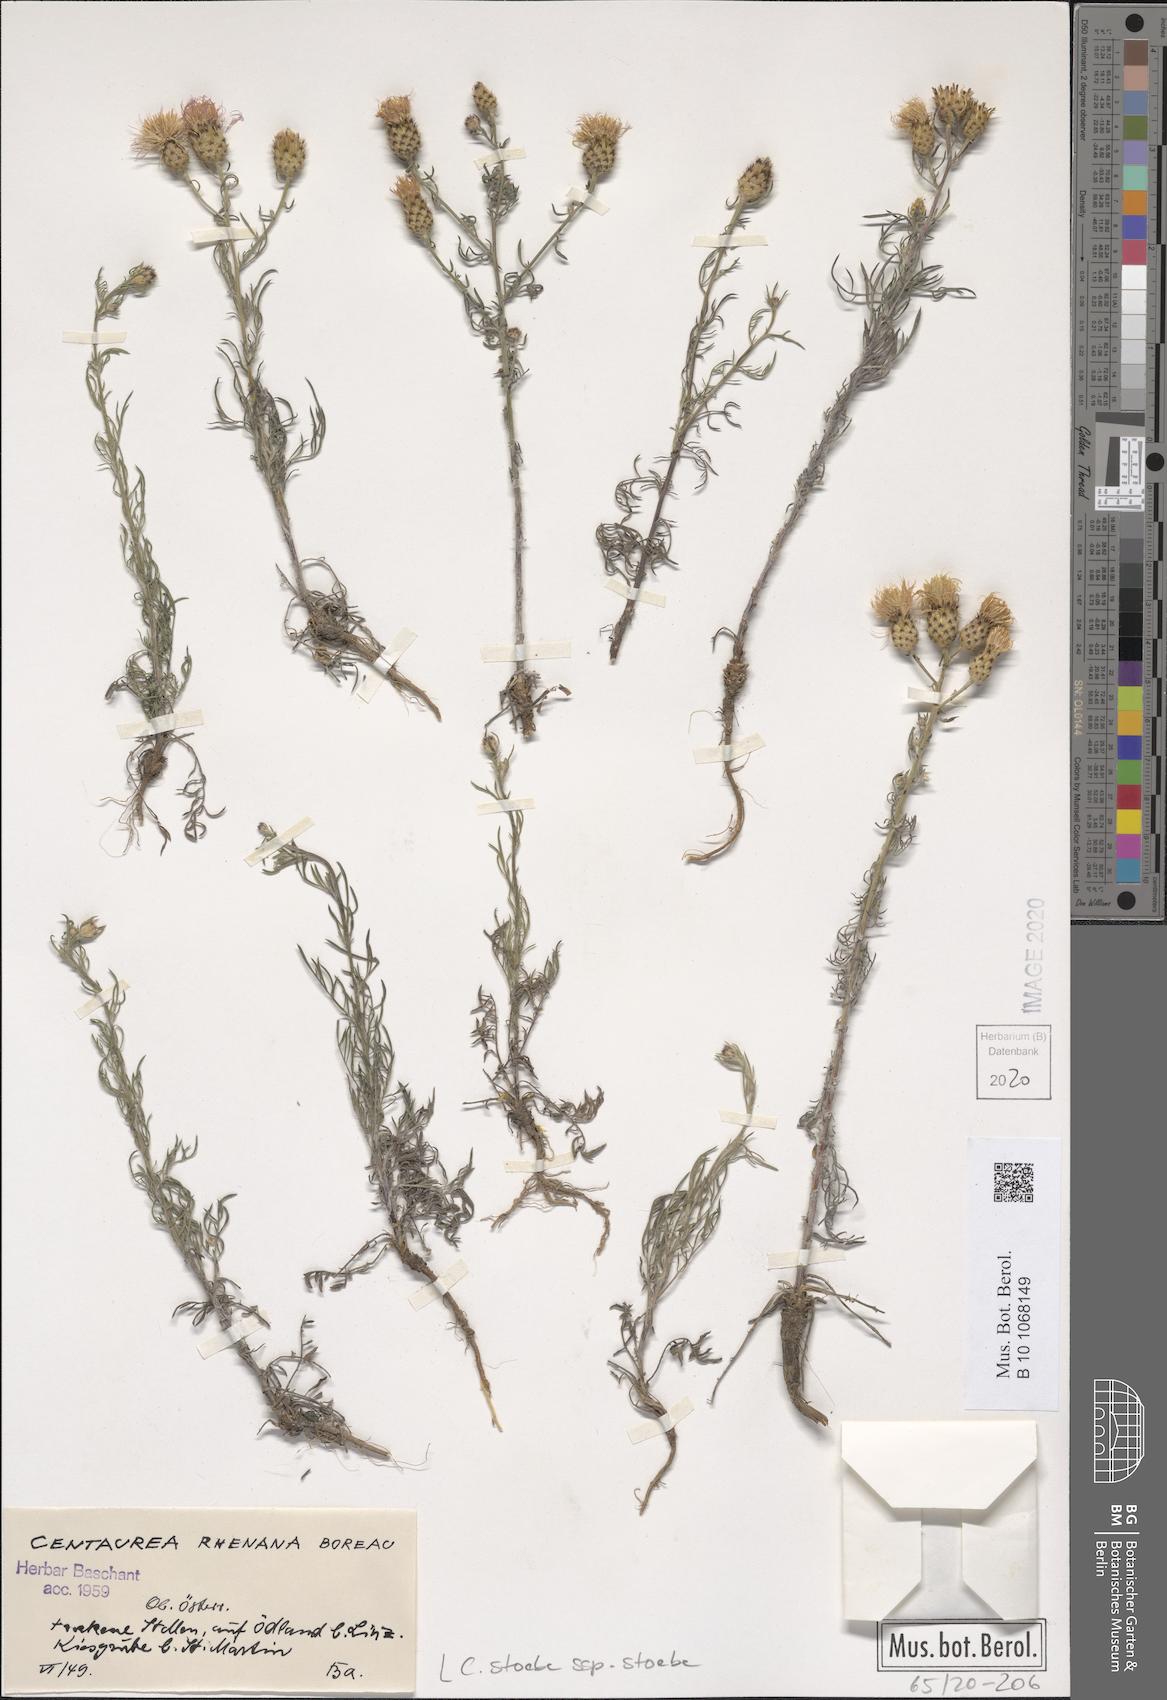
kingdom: Plantae
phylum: Tracheophyta
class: Magnoliopsida
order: Asterales
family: Asteraceae
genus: Centaurea
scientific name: Centaurea stoebe
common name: Spotted knapweed
